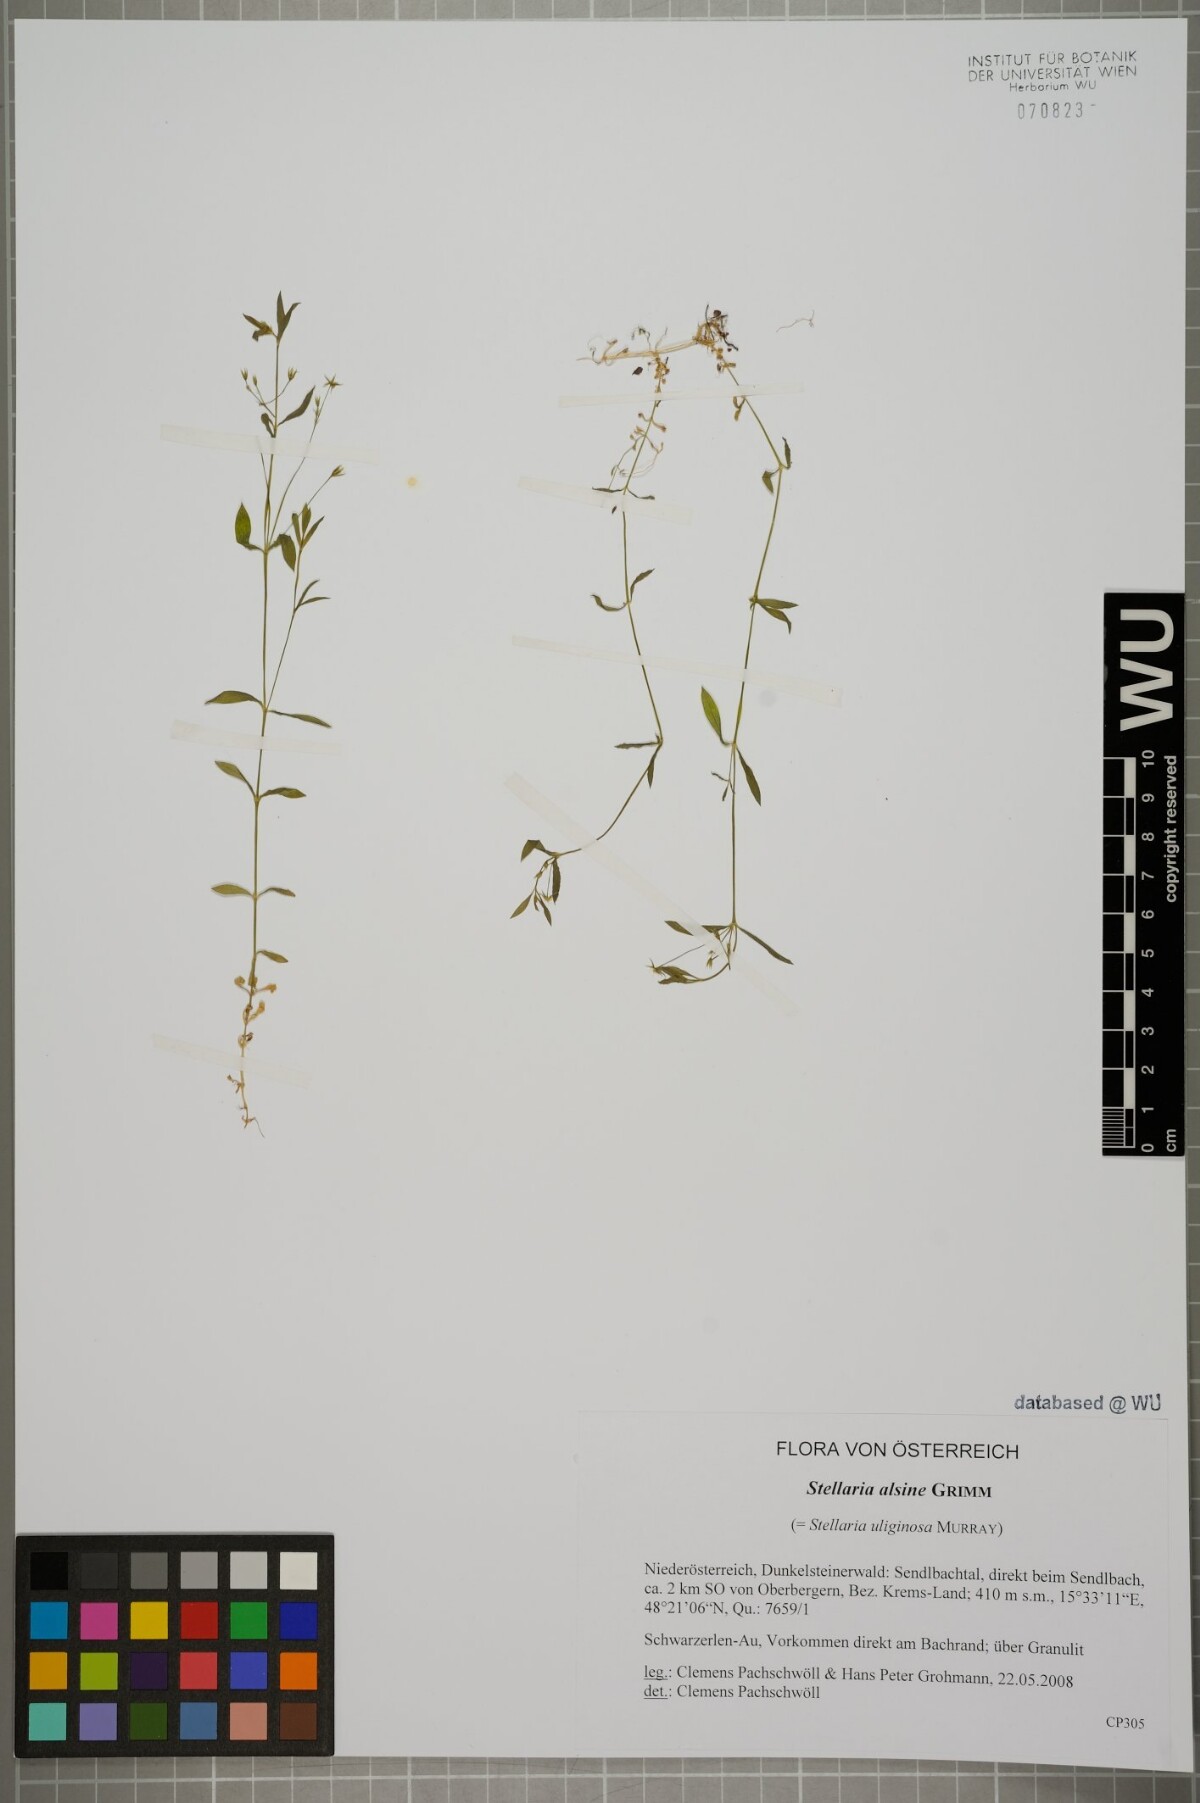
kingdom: Plantae
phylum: Tracheophyta
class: Magnoliopsida
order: Caryophyllales
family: Caryophyllaceae
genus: Stellaria
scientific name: Stellaria alsine
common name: Bog stitchwort
